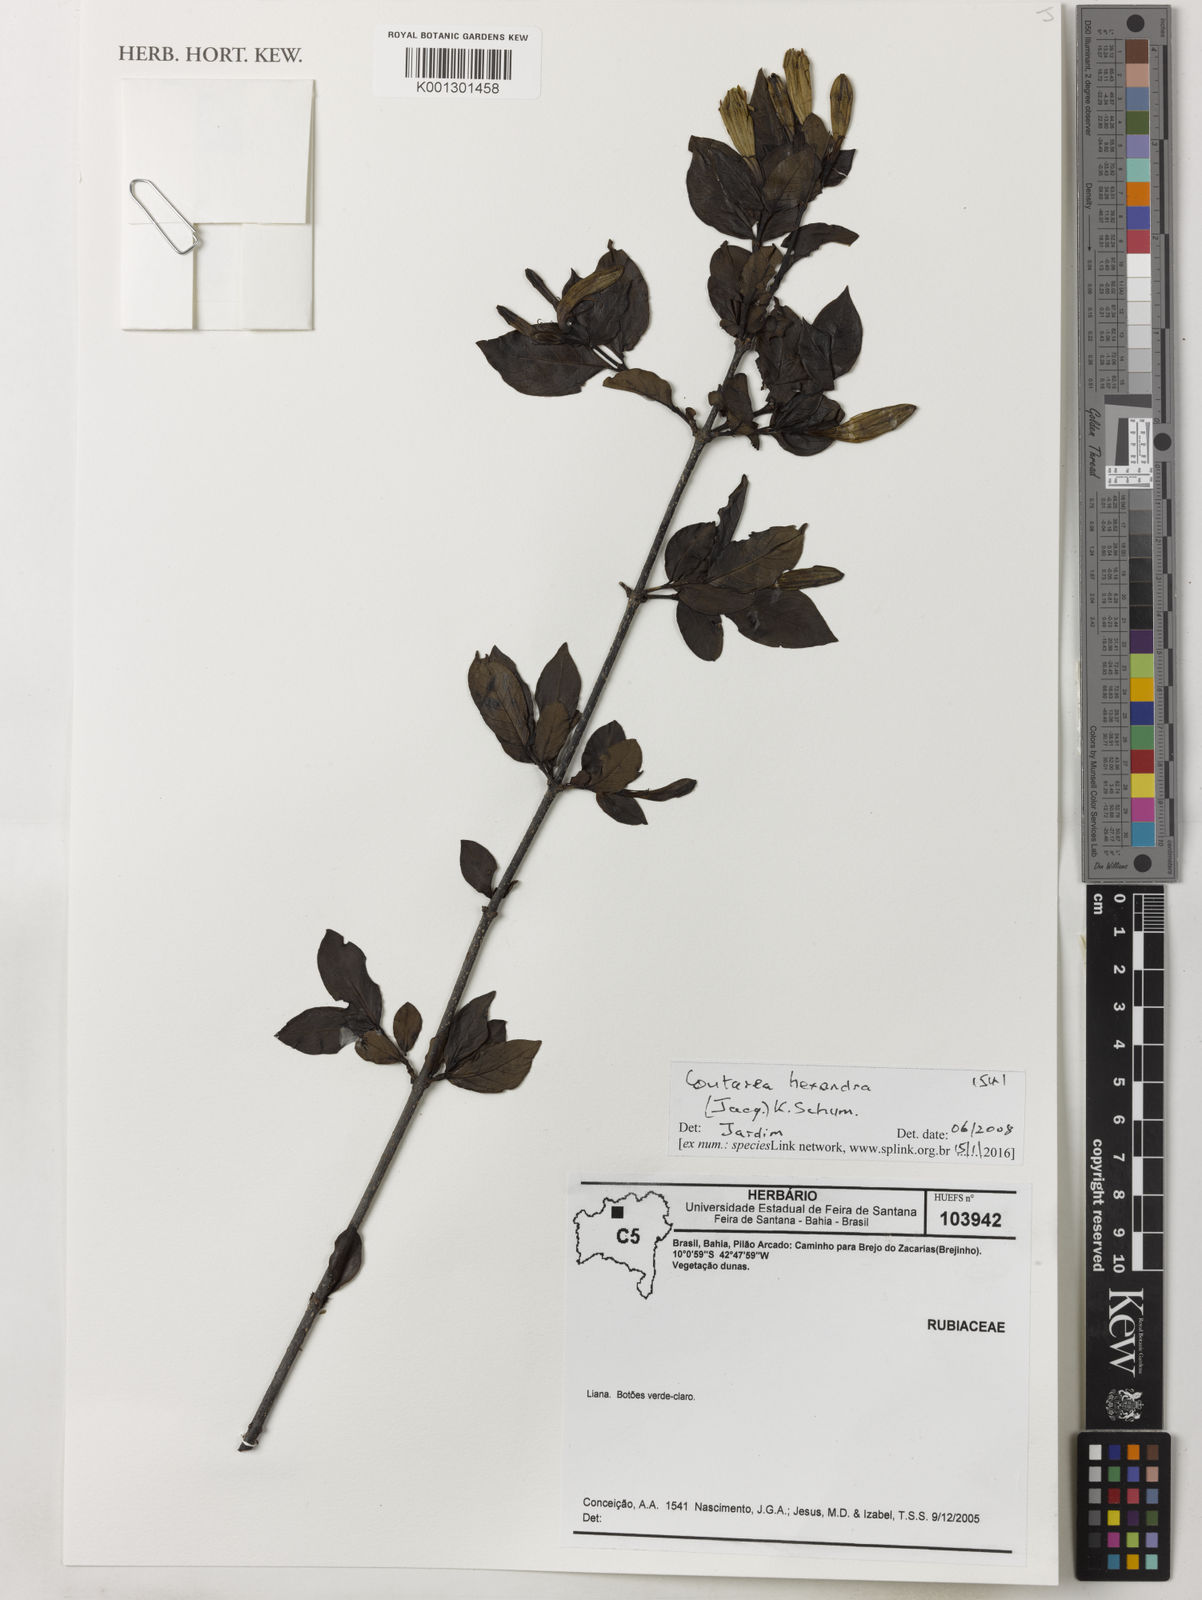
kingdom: Plantae
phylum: Tracheophyta
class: Magnoliopsida
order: Gentianales
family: Rubiaceae
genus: Coutarea
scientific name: Coutarea hexandra
